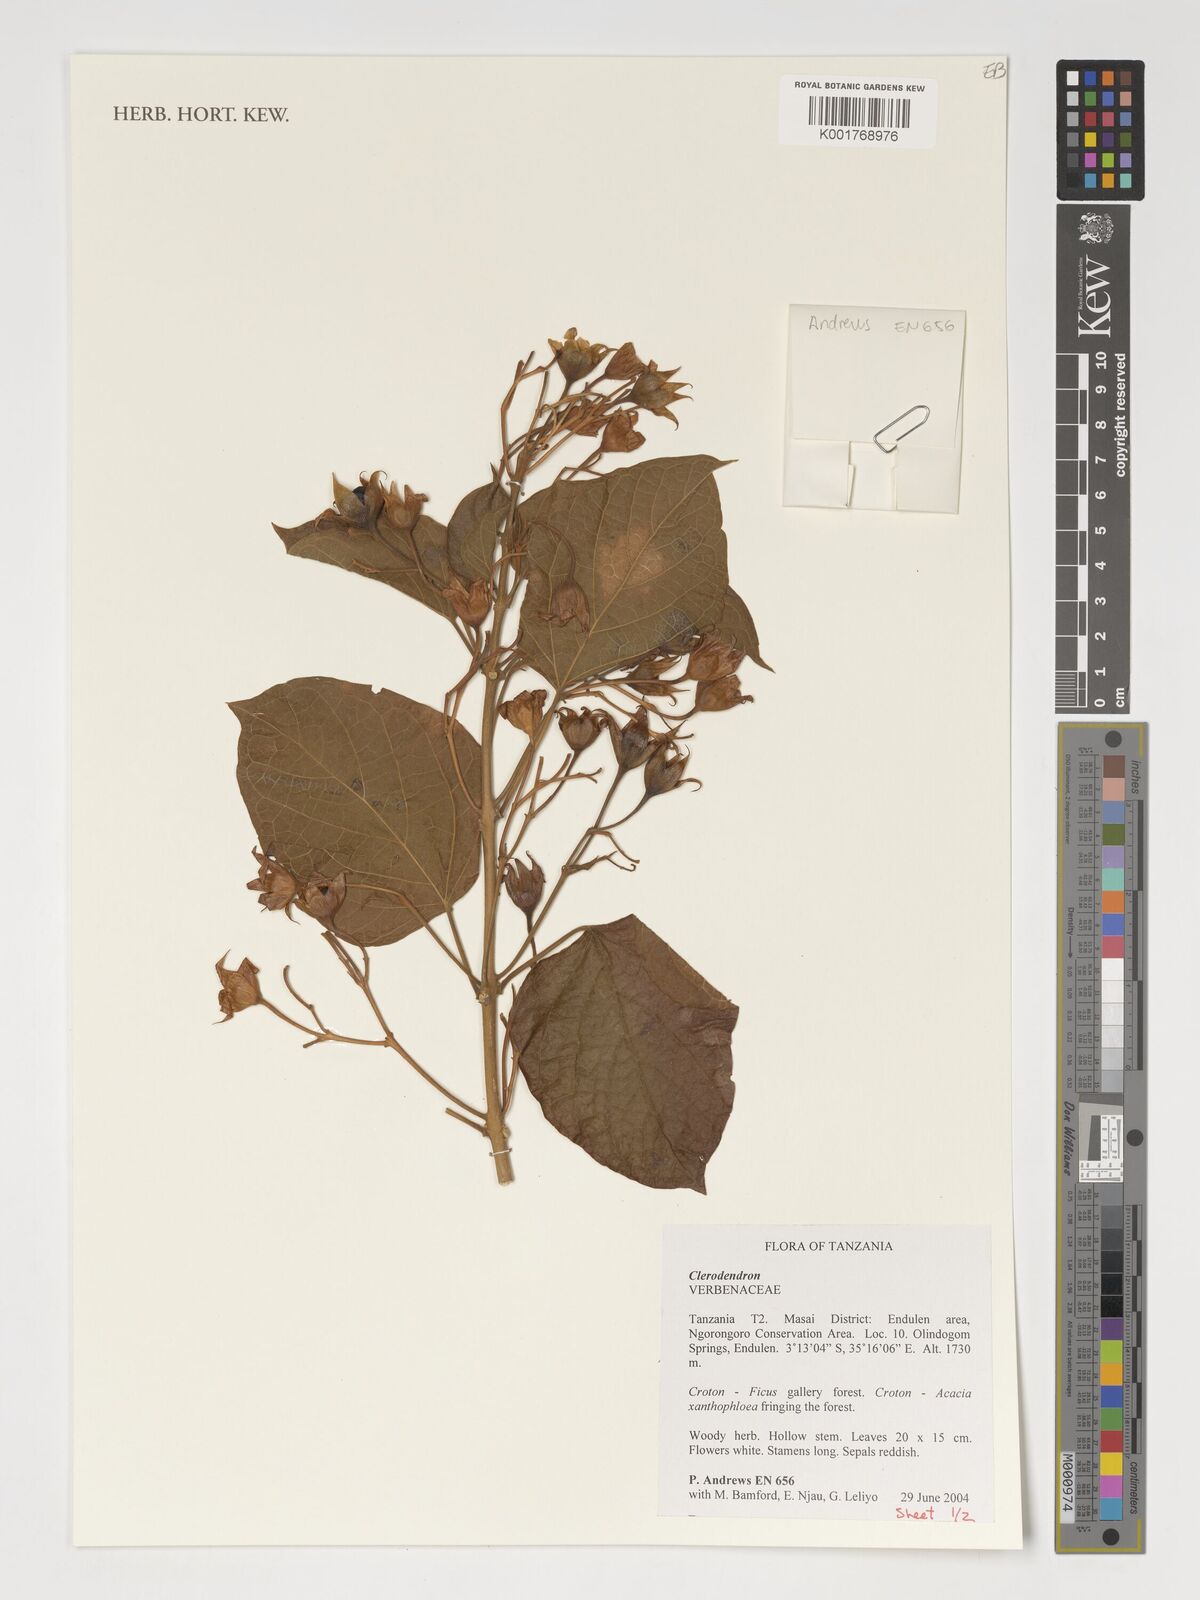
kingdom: Plantae
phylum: Tracheophyta
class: Magnoliopsida
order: Lamiales
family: Verbenaceae
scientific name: Verbenaceae
